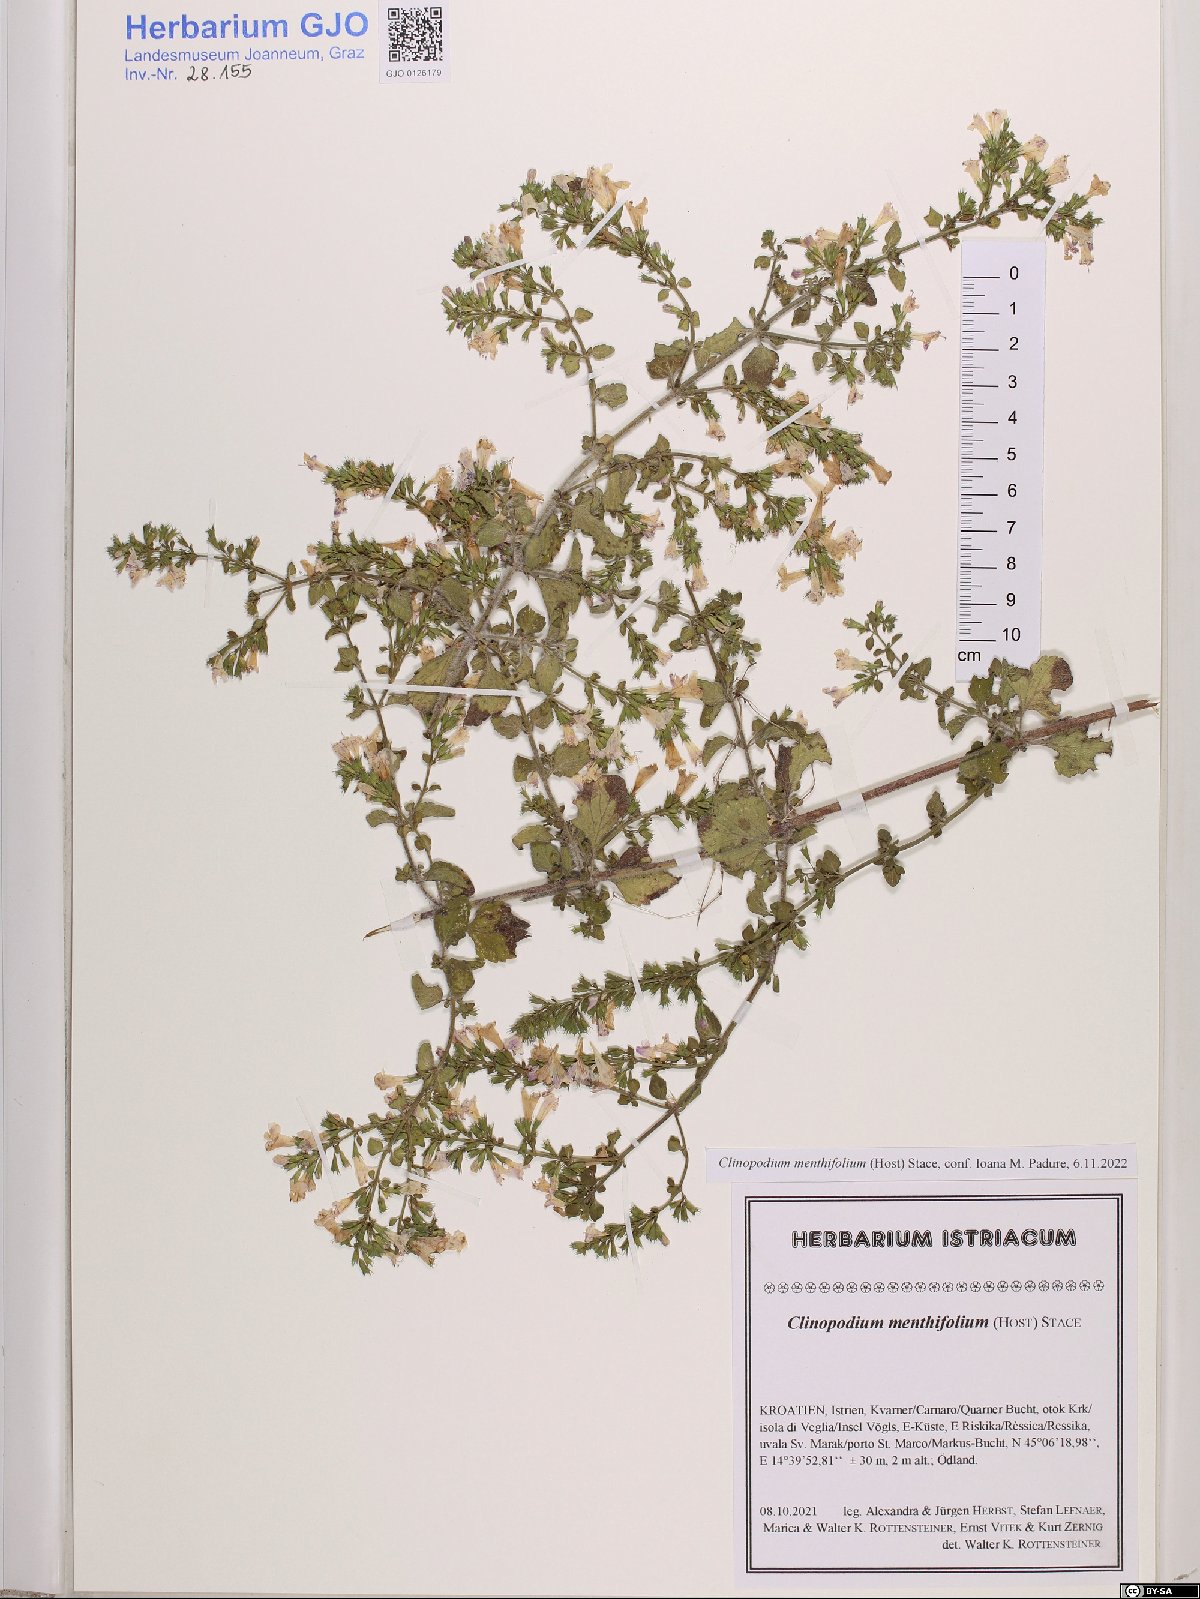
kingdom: Plantae
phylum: Tracheophyta
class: Magnoliopsida
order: Lamiales
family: Lamiaceae
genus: Clinopodium
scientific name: Clinopodium menthifolium
